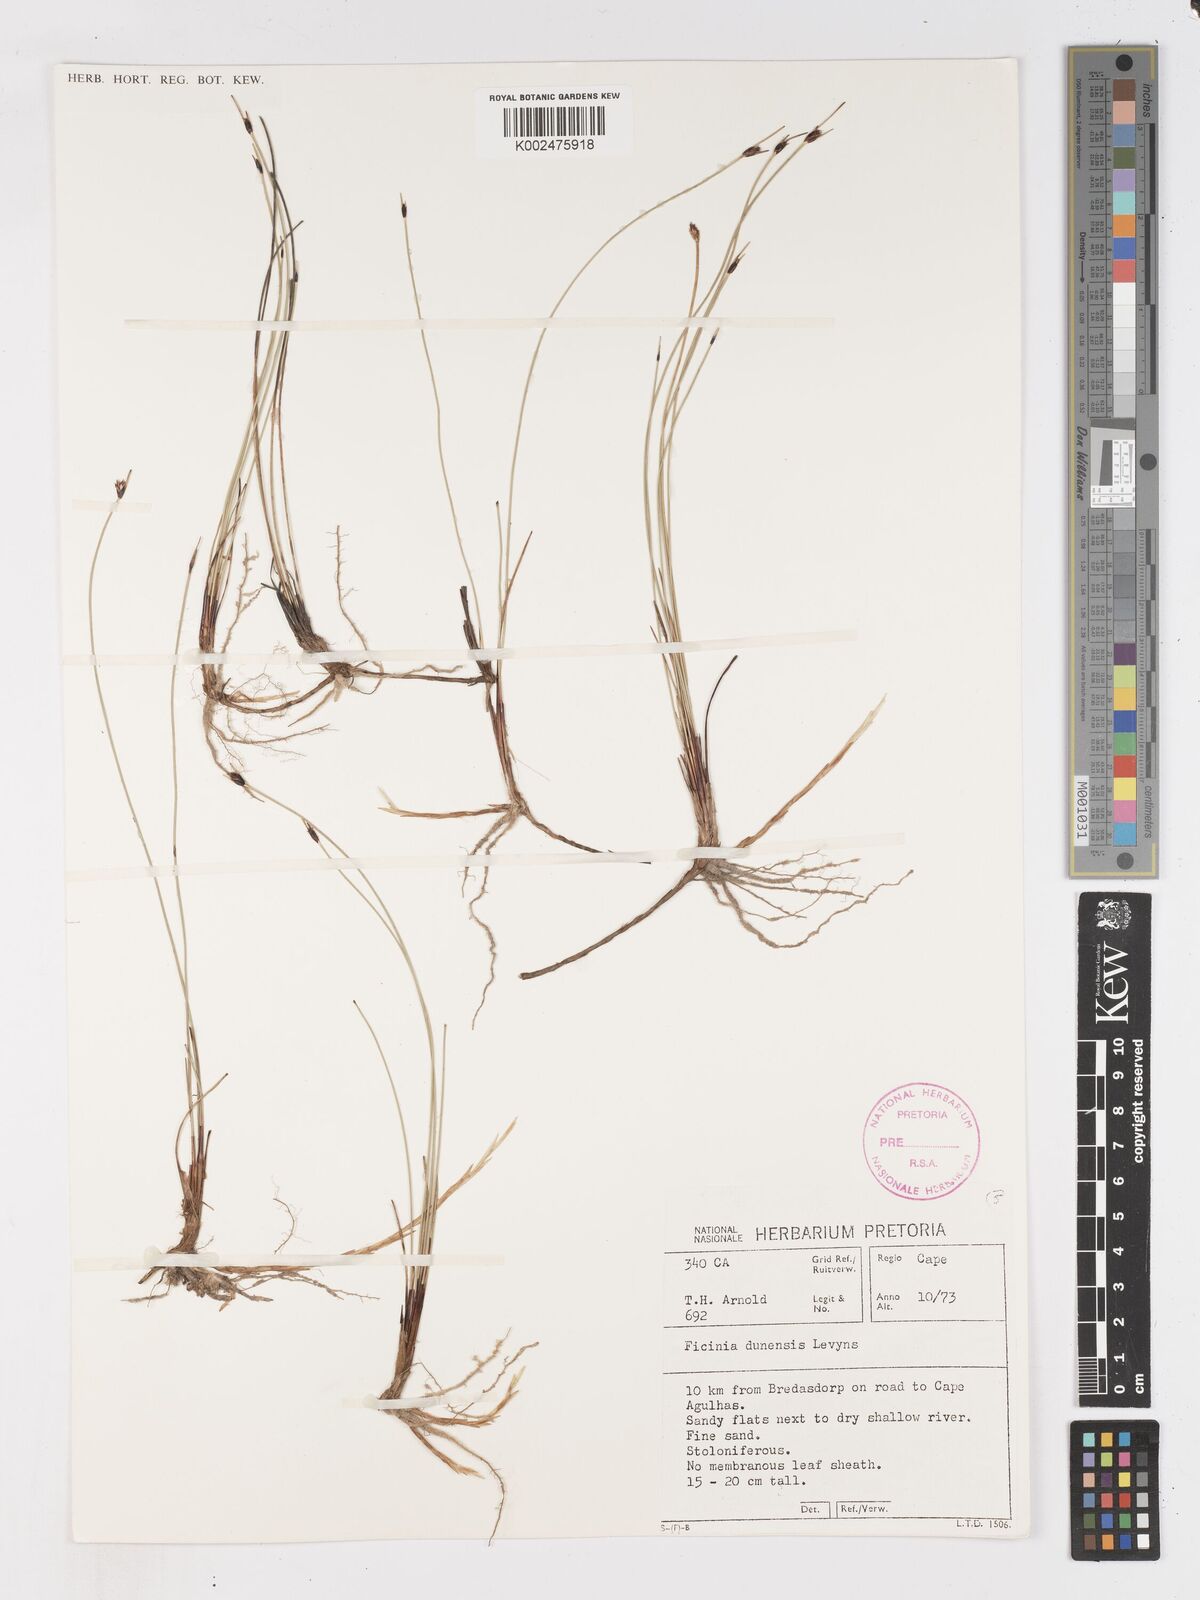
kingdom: Plantae
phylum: Tracheophyta
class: Liliopsida
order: Poales
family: Cyperaceae
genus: Ficinia
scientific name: Ficinia dunensis
